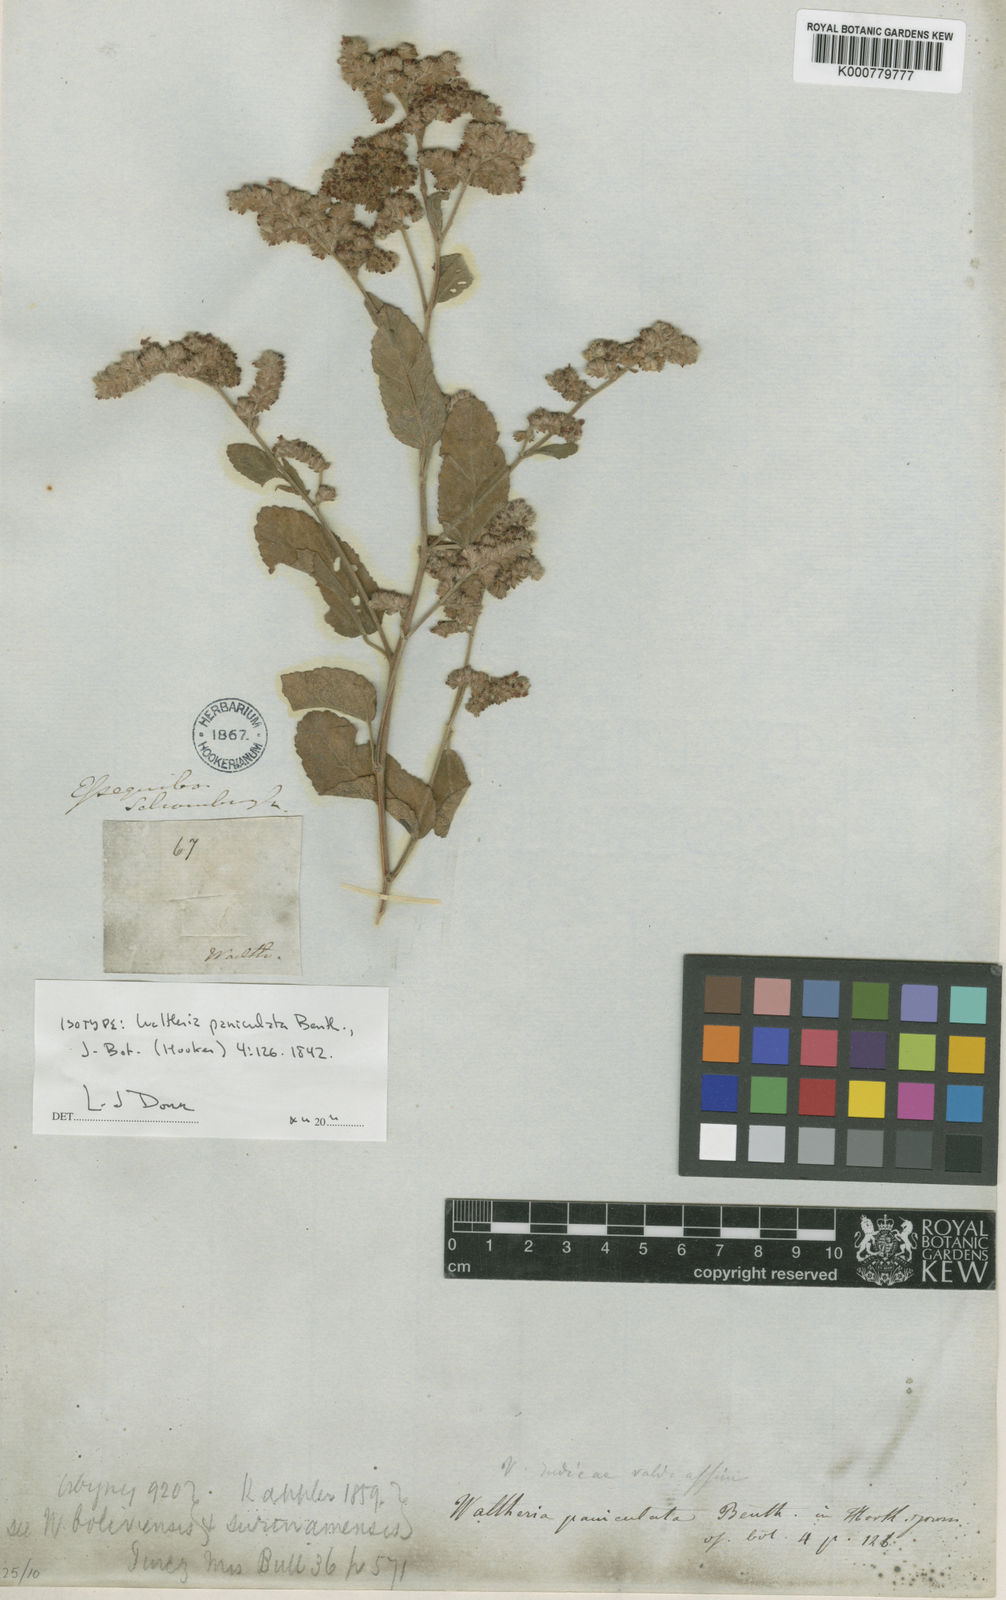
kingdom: Plantae
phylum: Tracheophyta
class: Magnoliopsida
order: Malvales
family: Malvaceae
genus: Waltheria
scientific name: Waltheria indica
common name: Leather-coat
